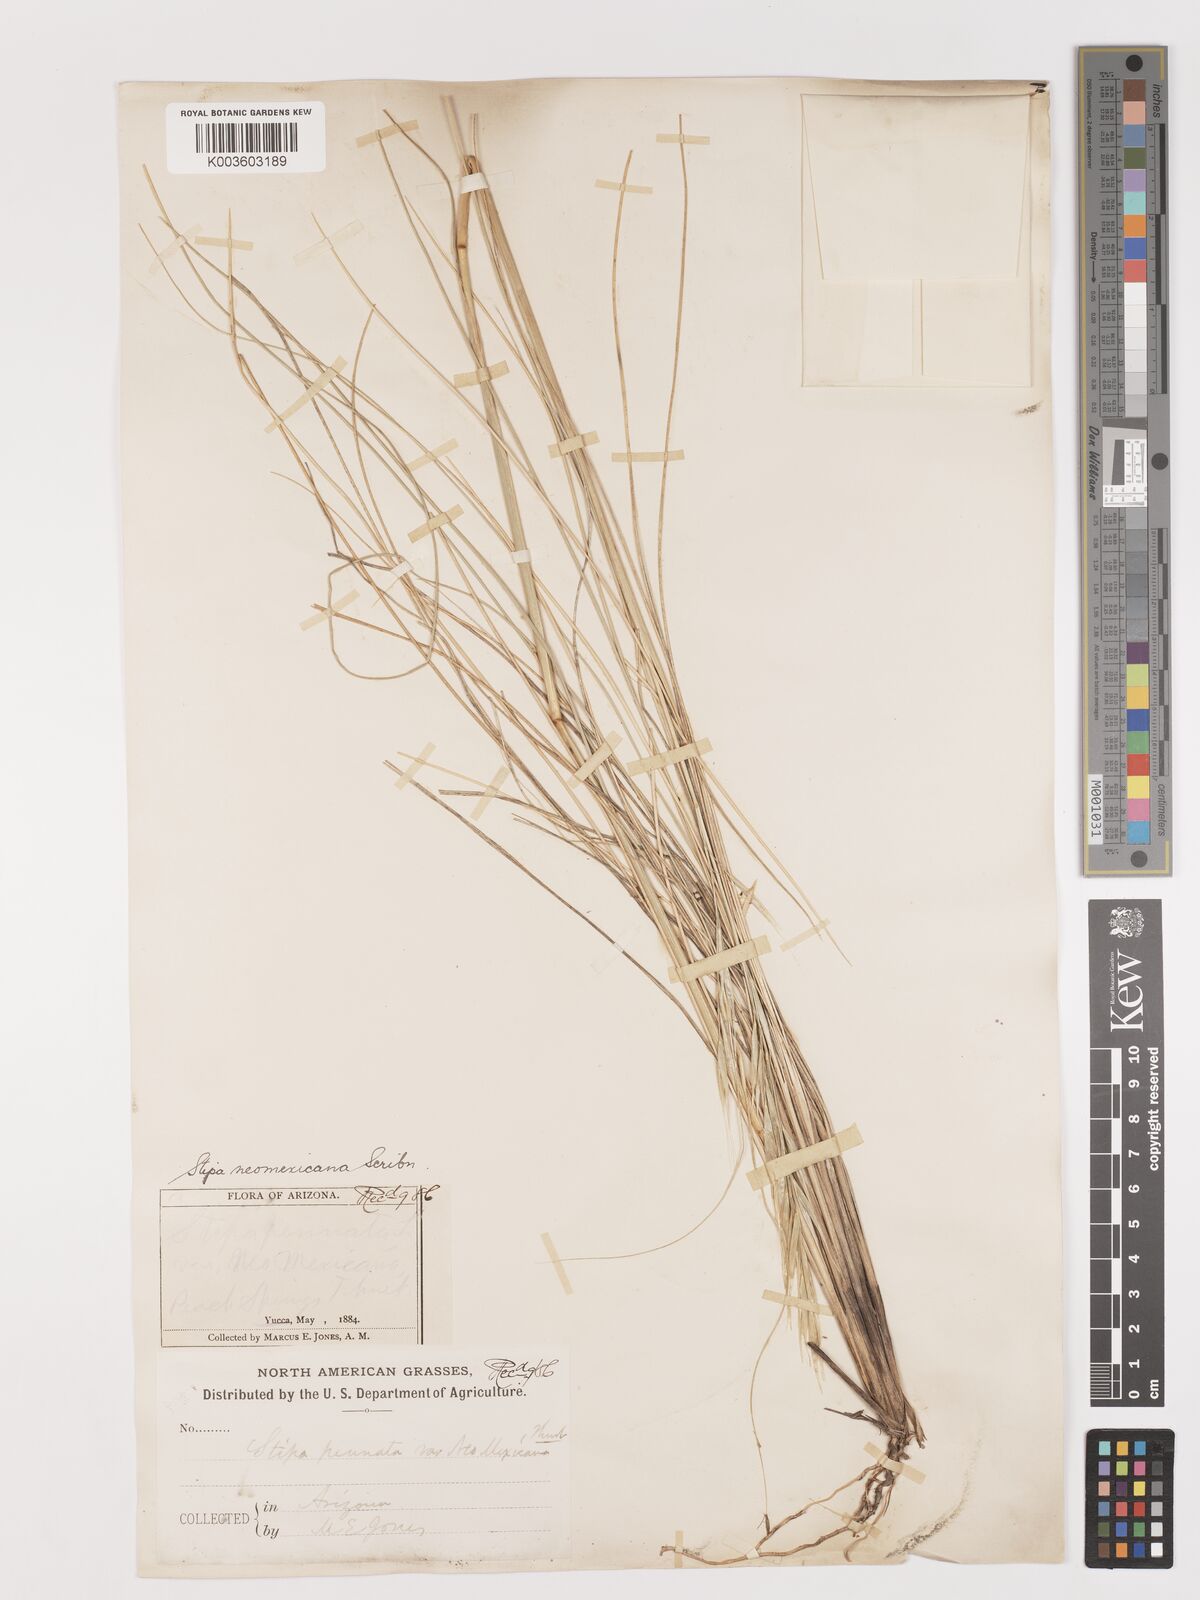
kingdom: Plantae
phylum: Tracheophyta
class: Liliopsida
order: Poales
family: Poaceae
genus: Hesperostipa
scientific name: Hesperostipa neomexicana
